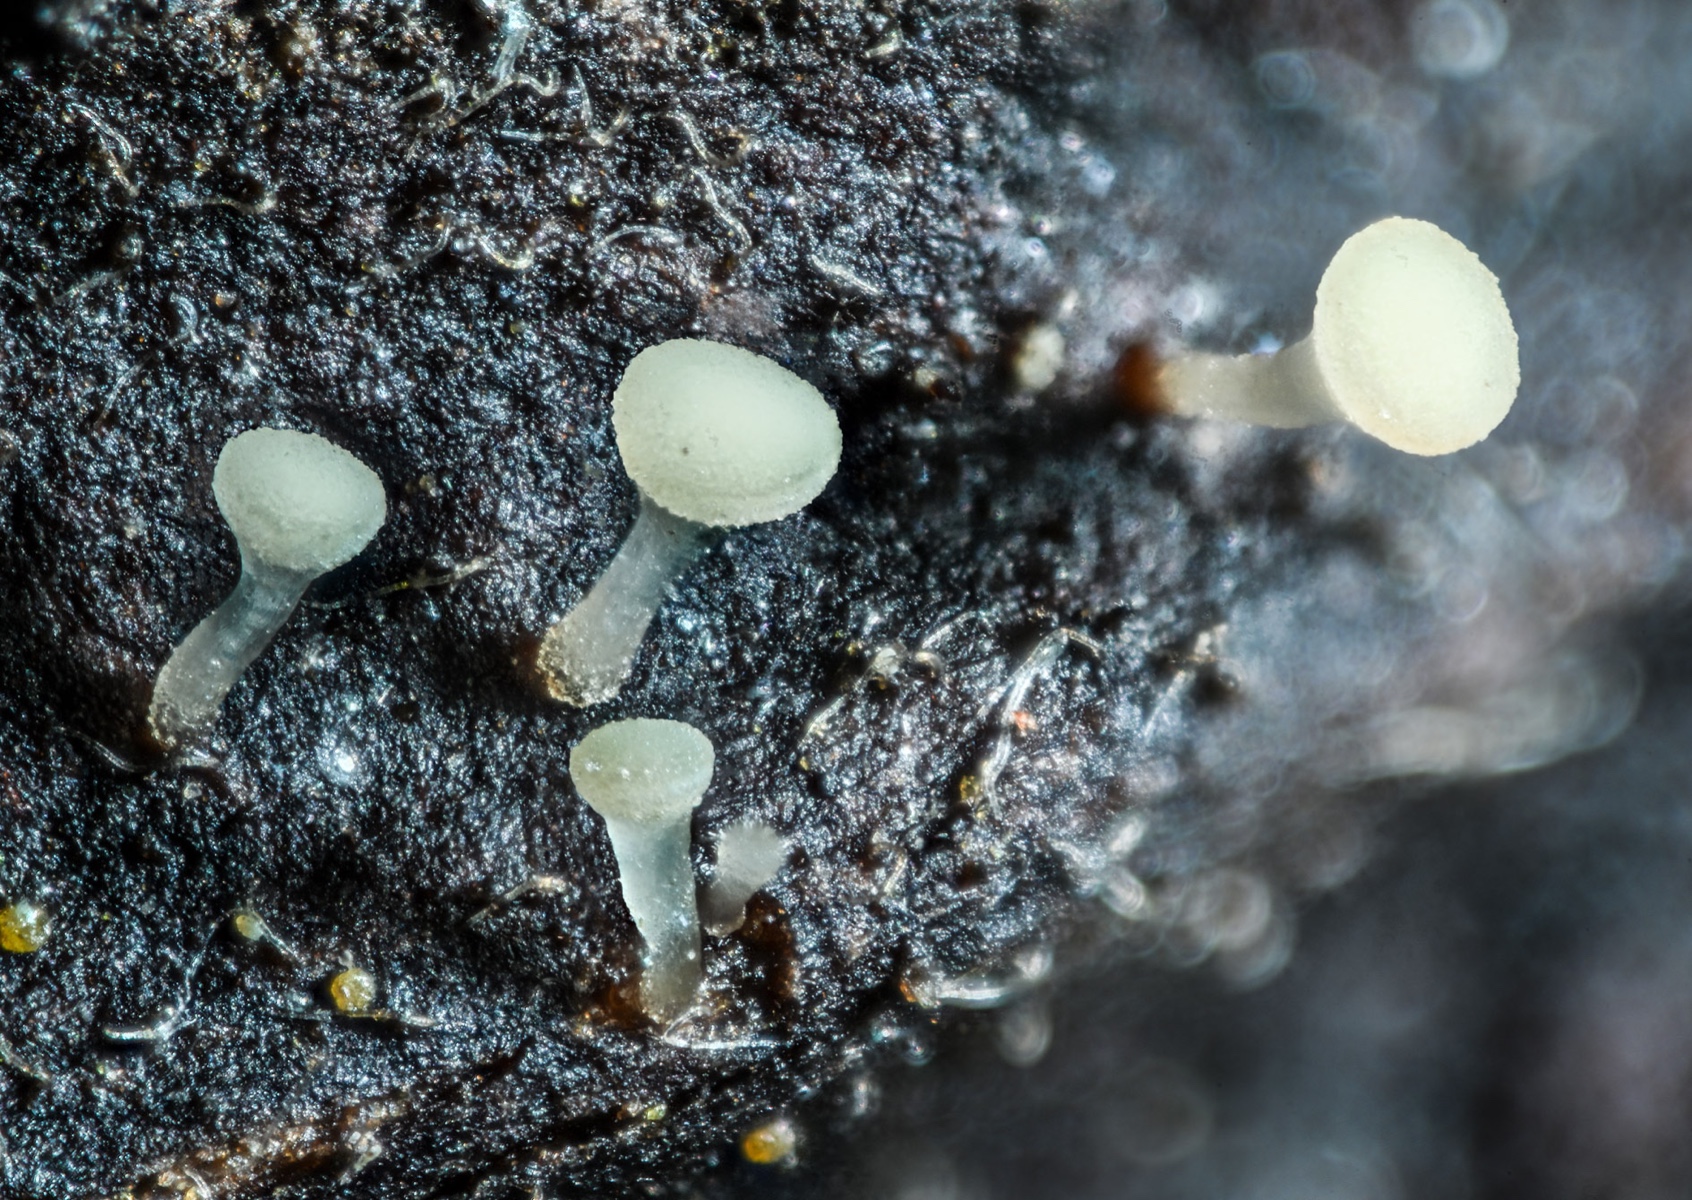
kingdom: Fungi
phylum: Ascomycota
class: Leotiomycetes
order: Helotiales
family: Helotiaceae
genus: Hymenoscyphus
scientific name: Hymenoscyphus caudatus
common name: blad-stilkskive
